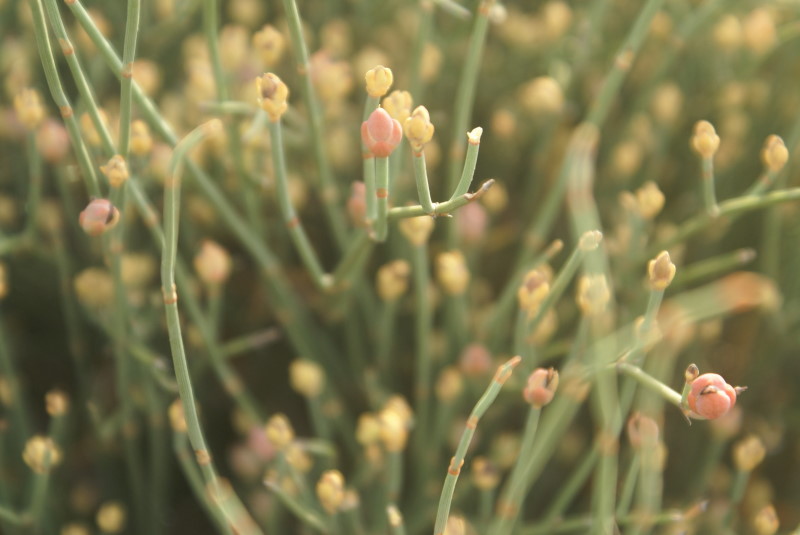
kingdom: Plantae
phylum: Tracheophyta
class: Gnetopsida
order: Ephedrales
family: Ephedraceae
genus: Ephedra
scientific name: Ephedra distachya
